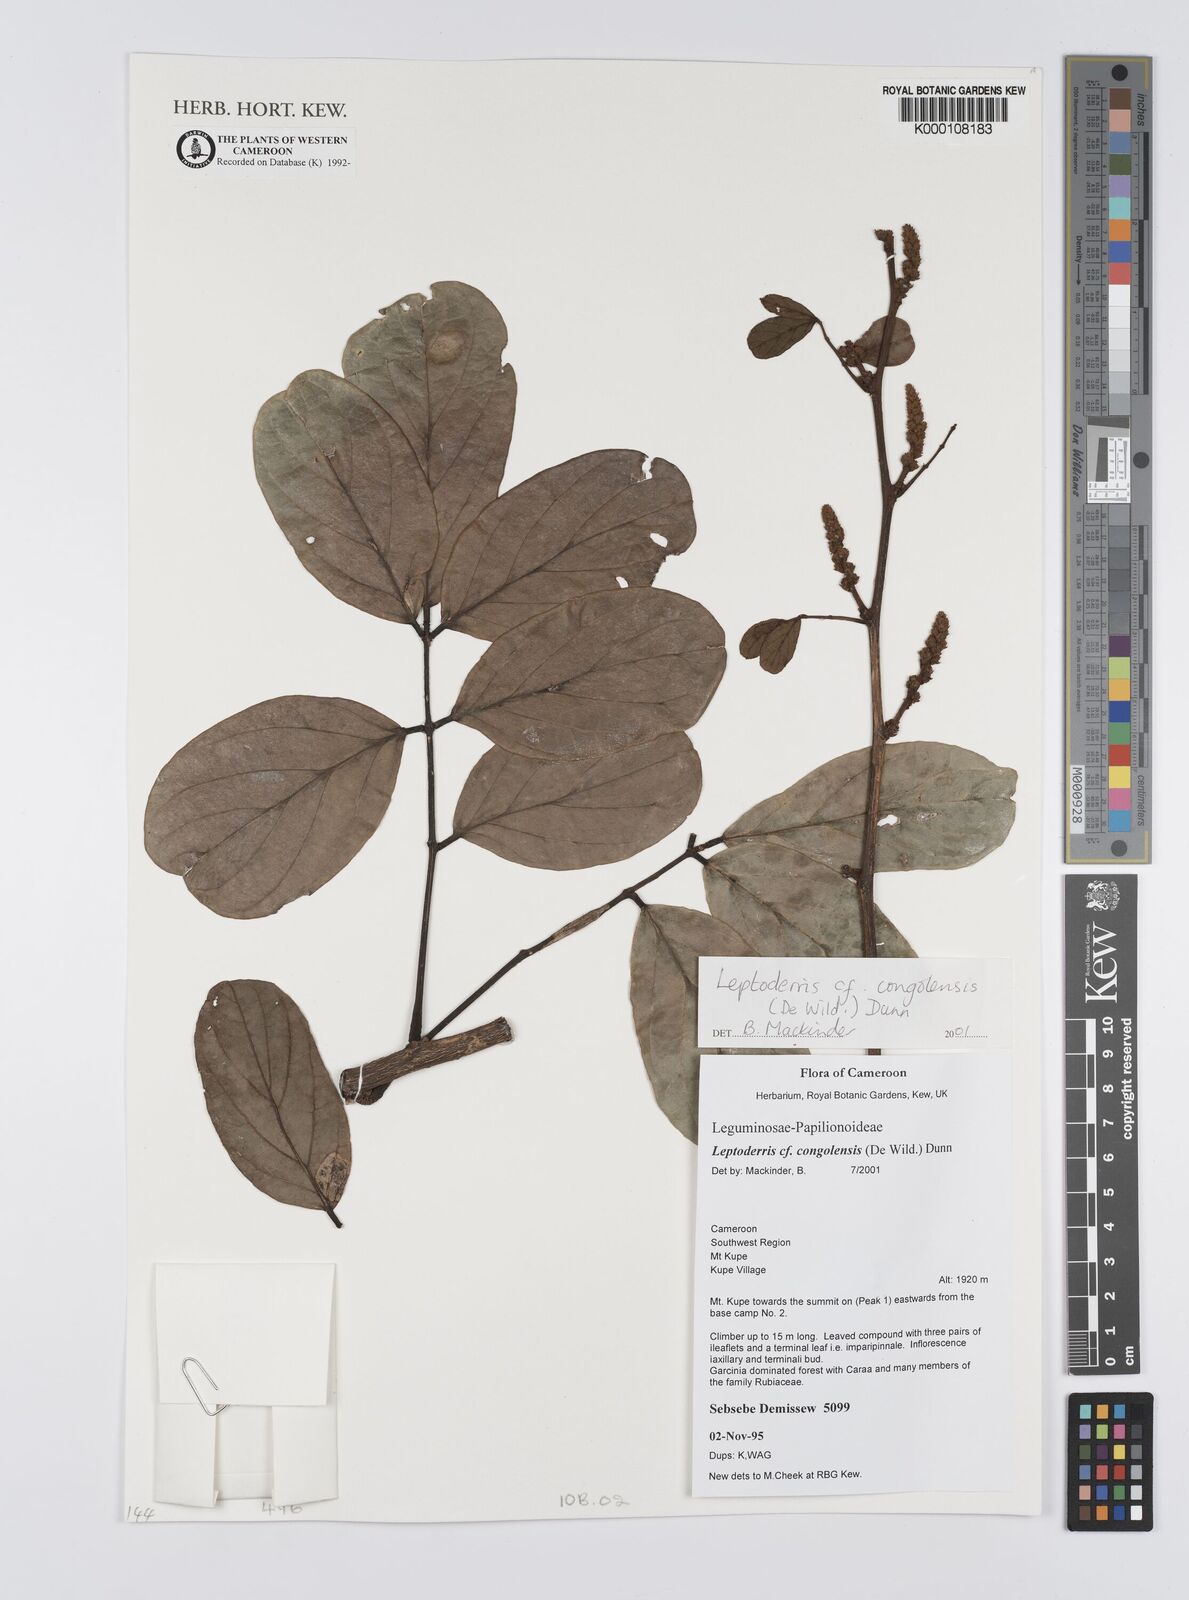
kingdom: Plantae
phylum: Tracheophyta
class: Magnoliopsida
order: Fabales
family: Fabaceae
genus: Leptoderris
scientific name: Leptoderris congolensis
